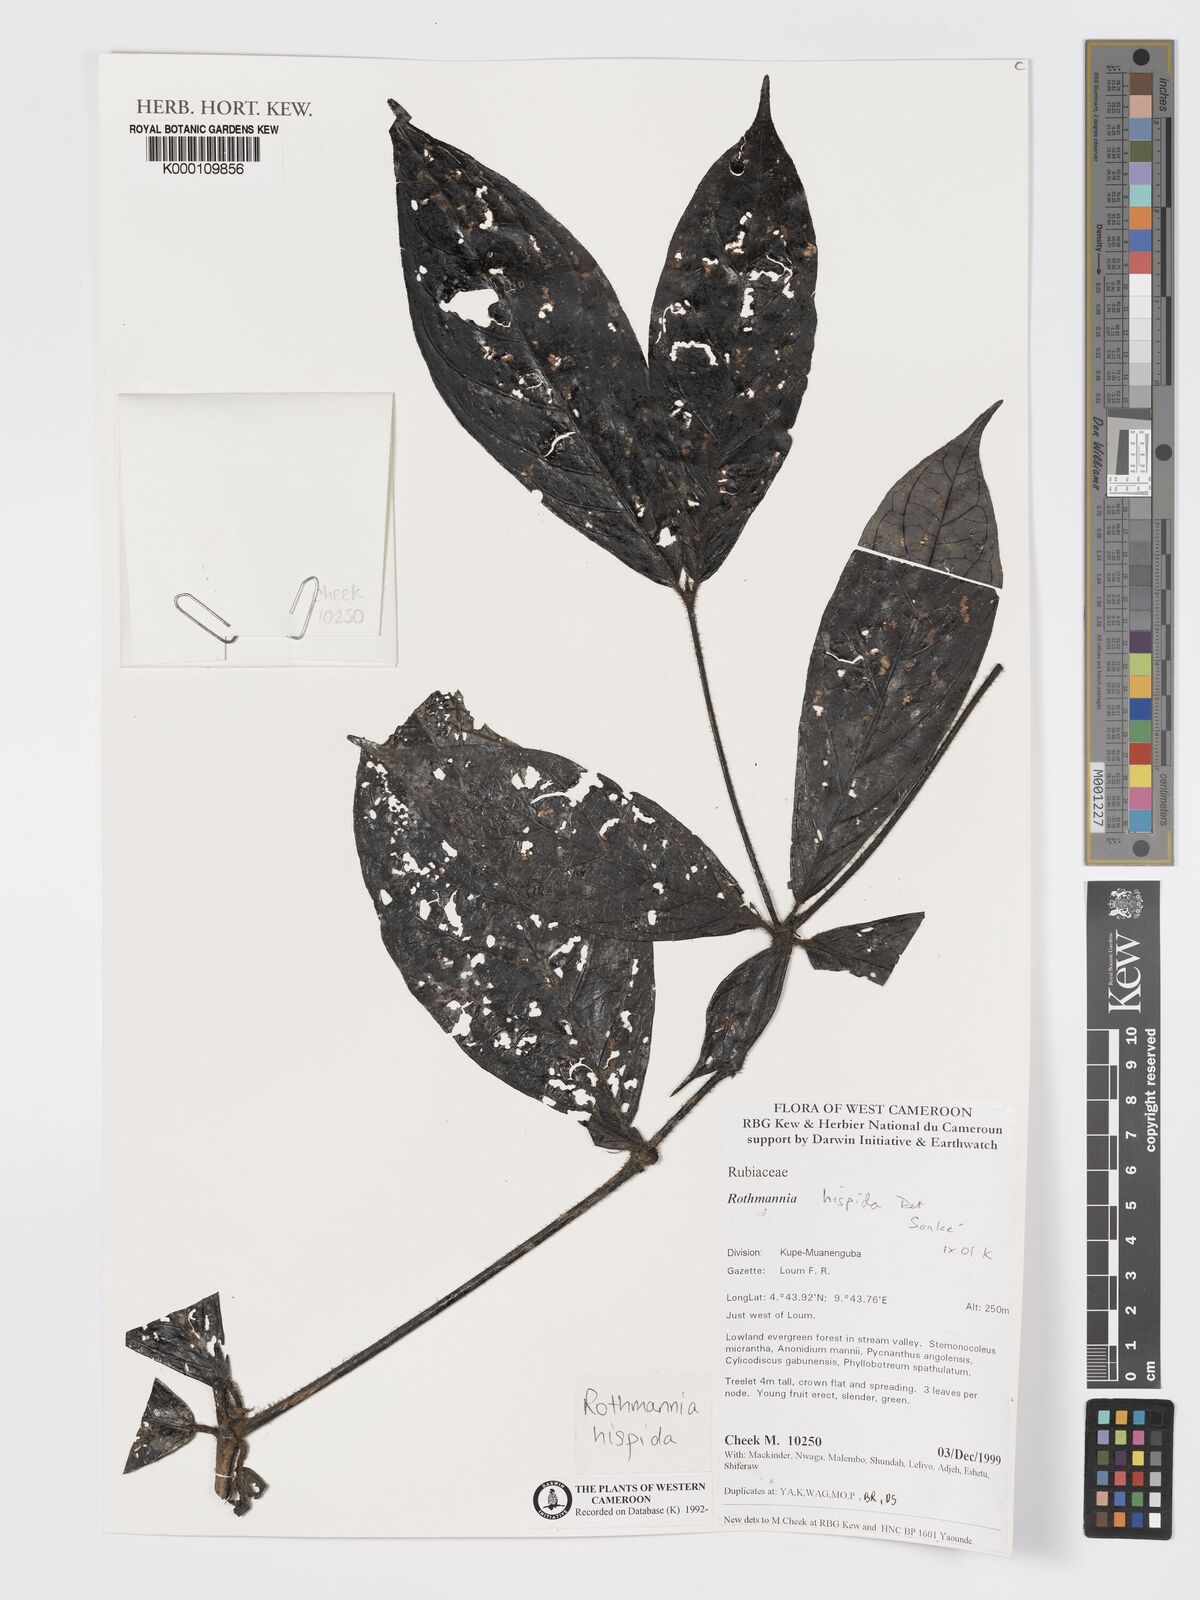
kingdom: Plantae
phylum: Tracheophyta
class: Magnoliopsida
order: Gentianales
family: Rubiaceae
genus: Rothmannia
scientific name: Rothmannia hispida
